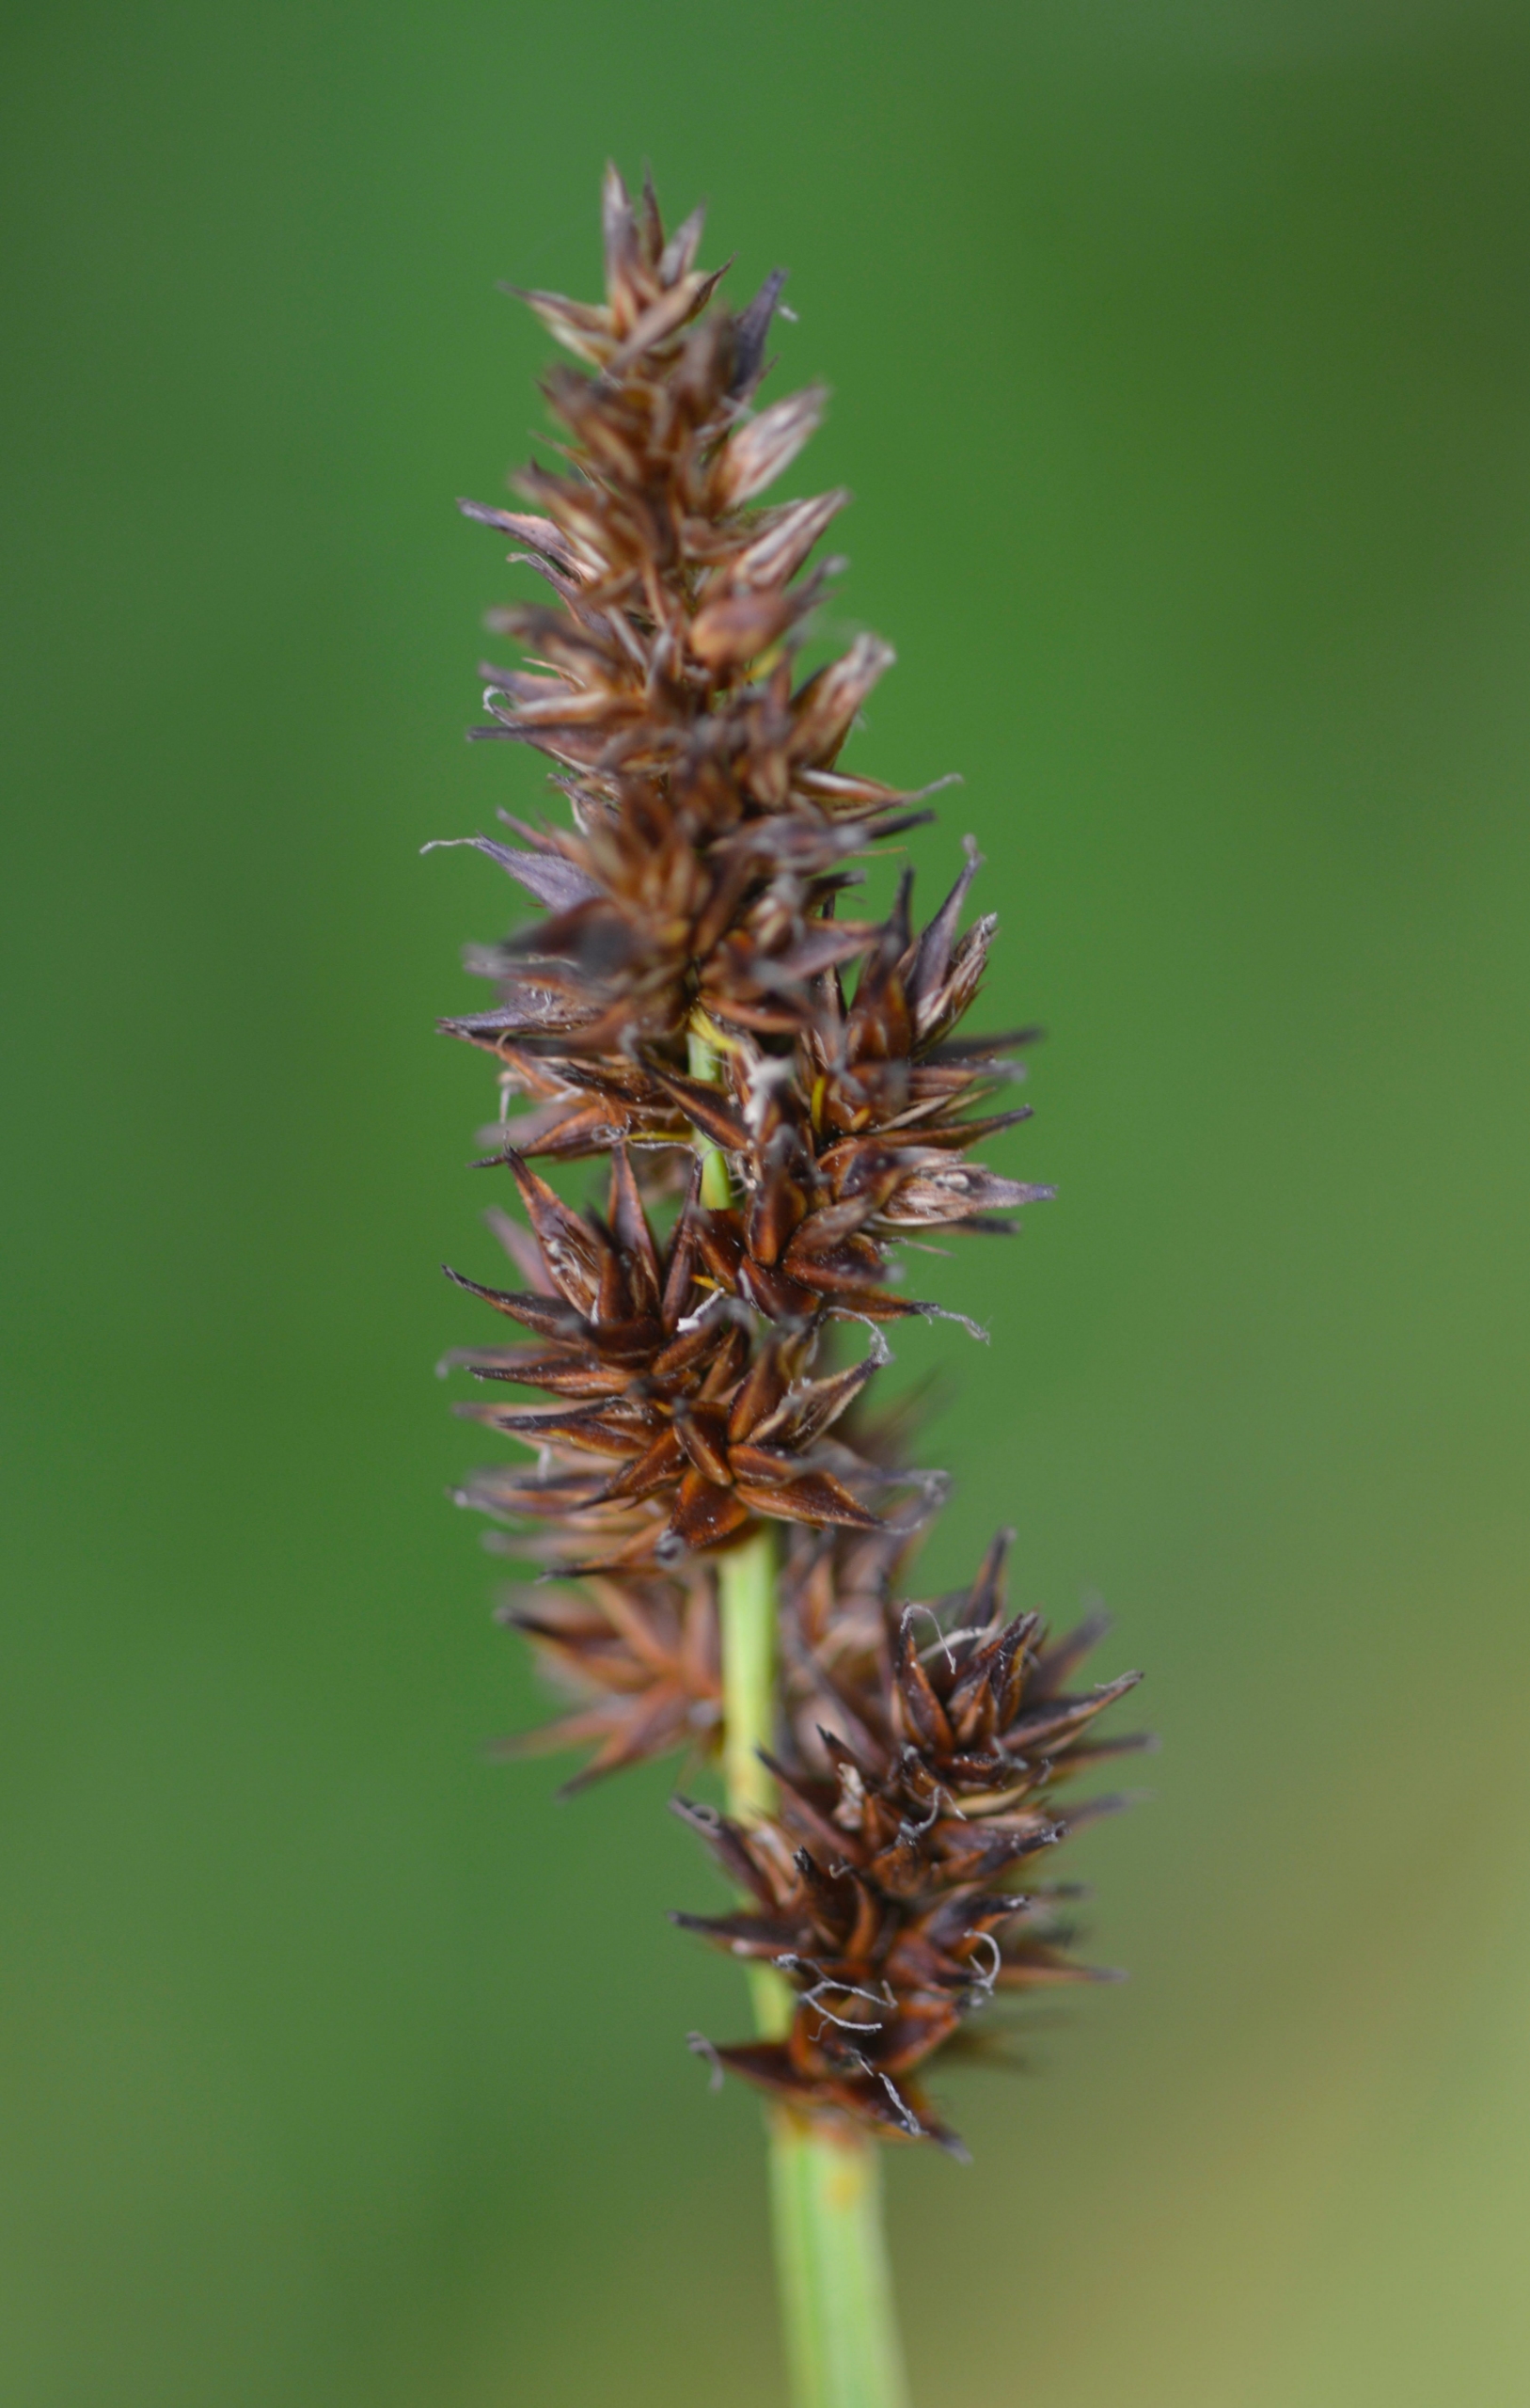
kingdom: Plantae
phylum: Tracheophyta
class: Liliopsida
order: Poales
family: Cyperaceae
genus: Carex
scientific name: Carex vulpina
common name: Ræve-star
